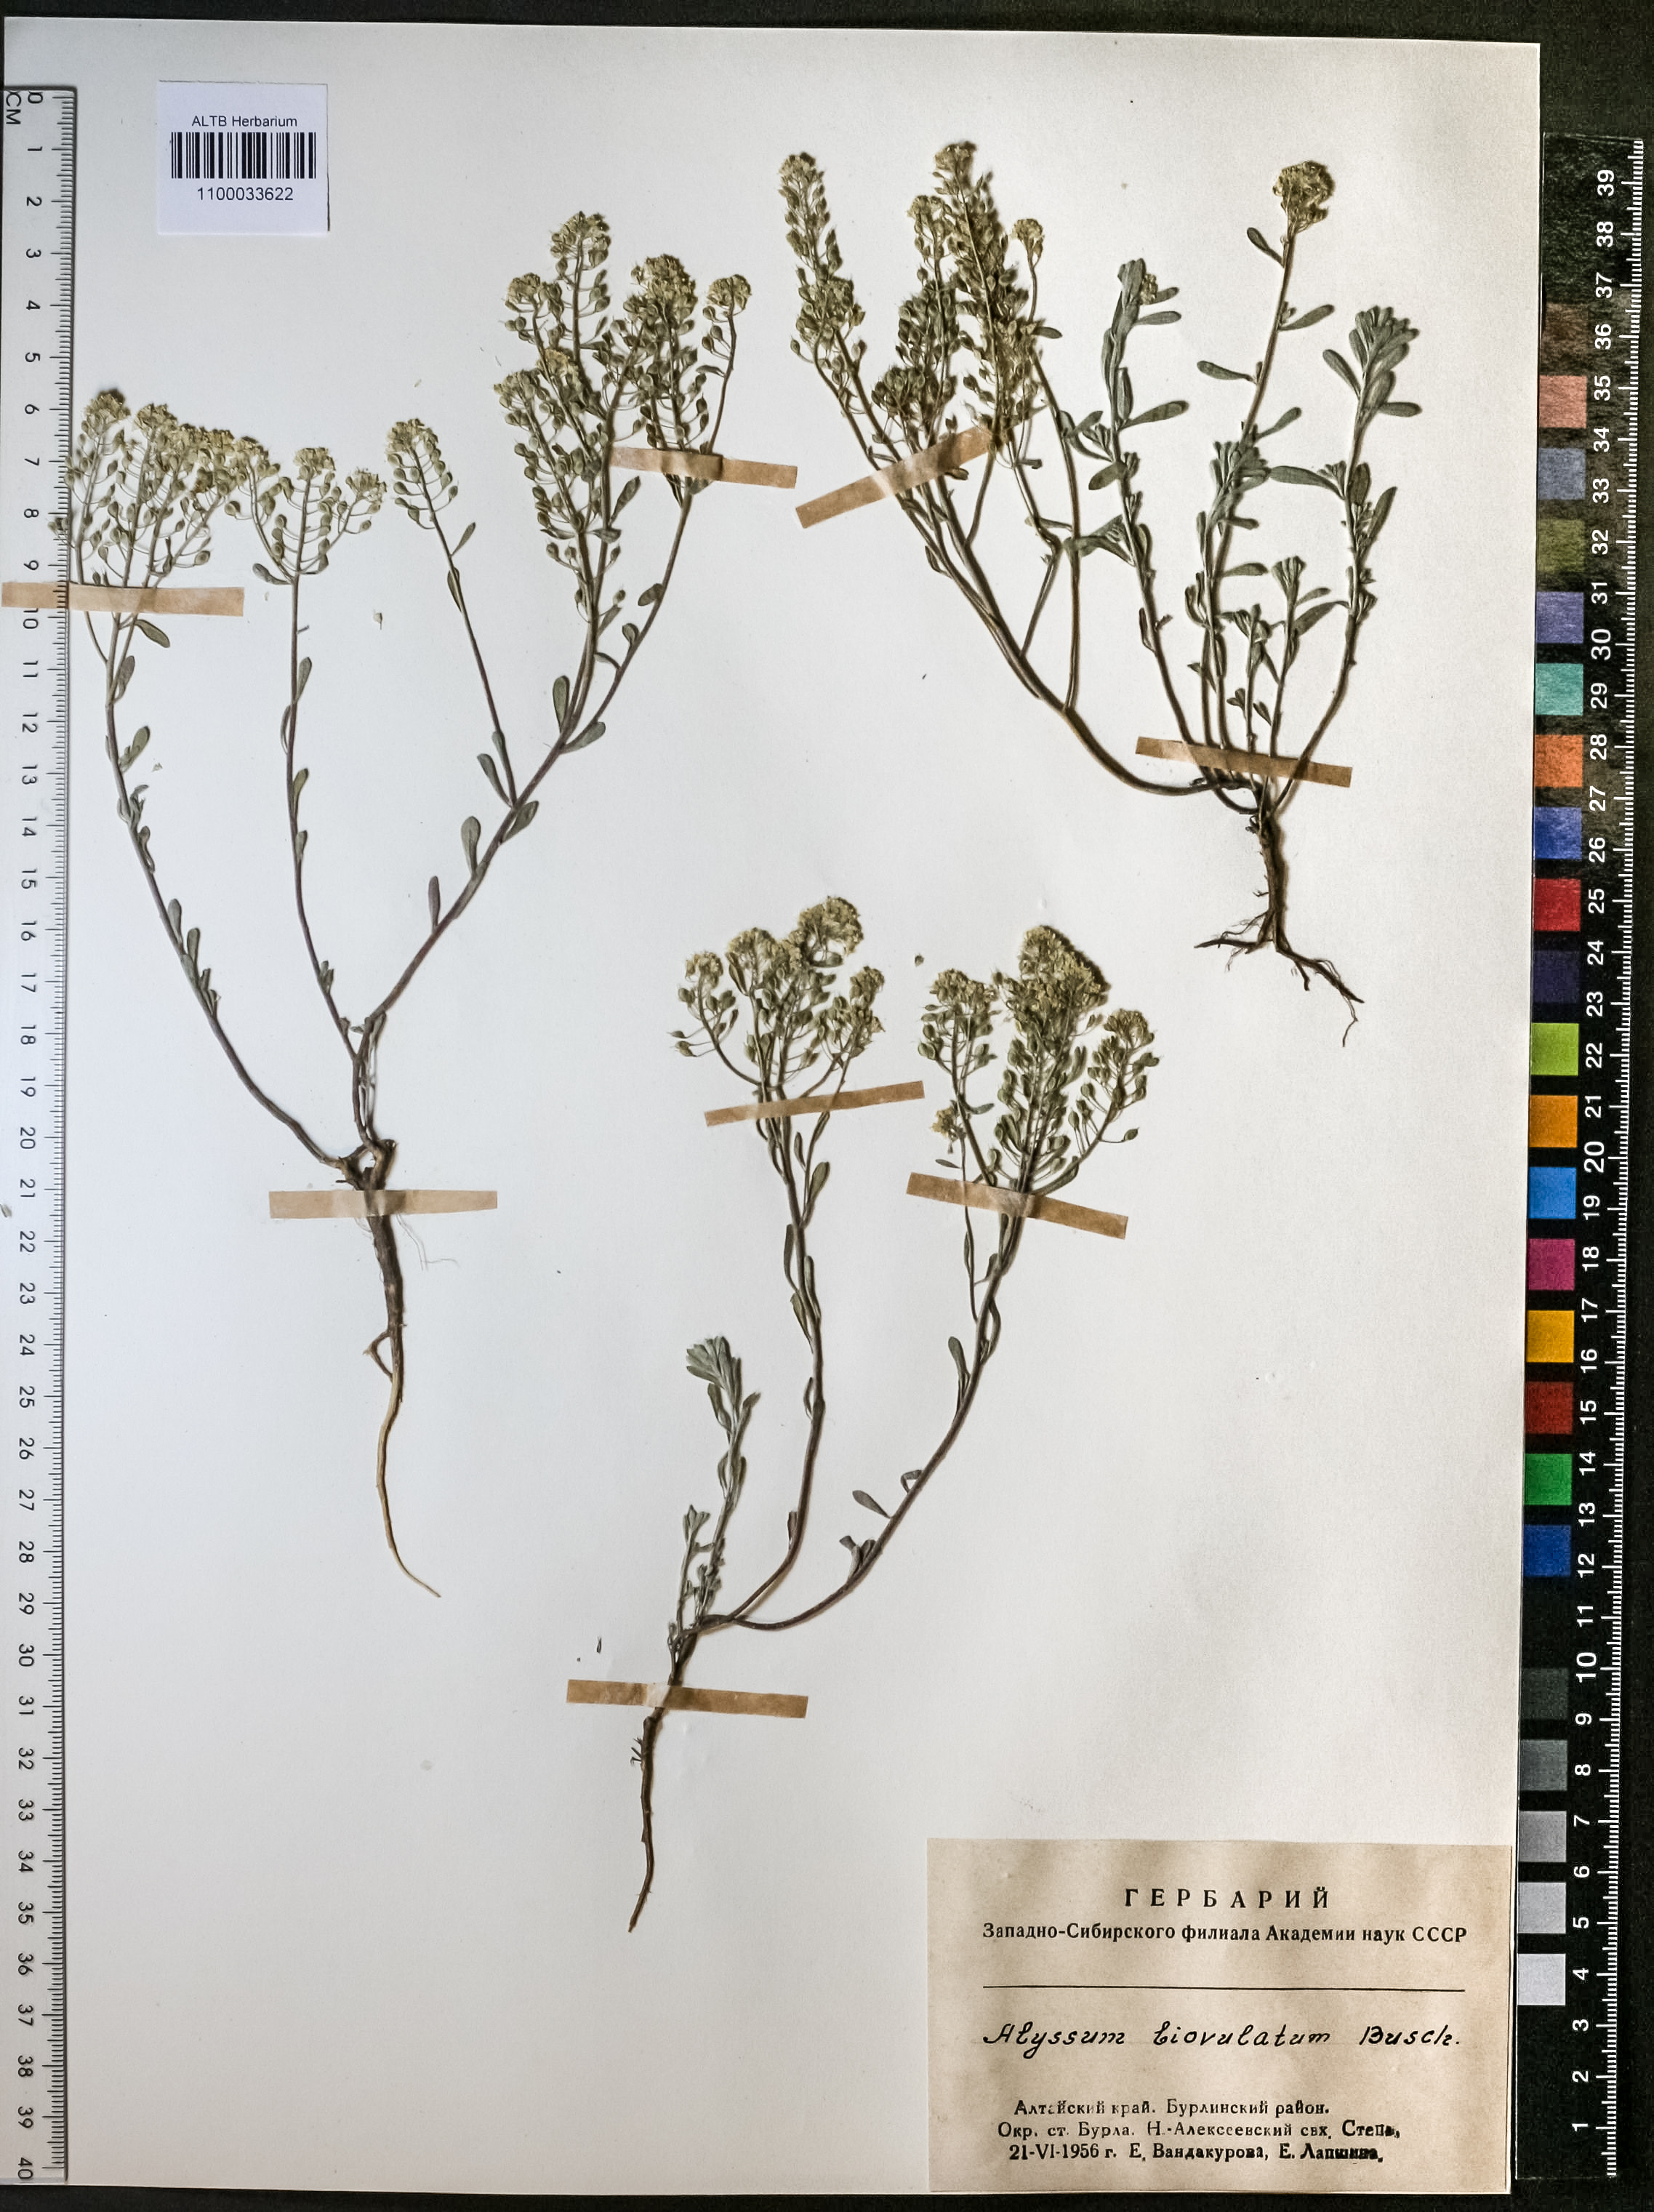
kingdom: Plantae
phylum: Tracheophyta
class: Magnoliopsida
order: Brassicales
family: Brassicaceae
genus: Odontarrhena
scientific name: Odontarrhena obovata
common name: American alyssum
